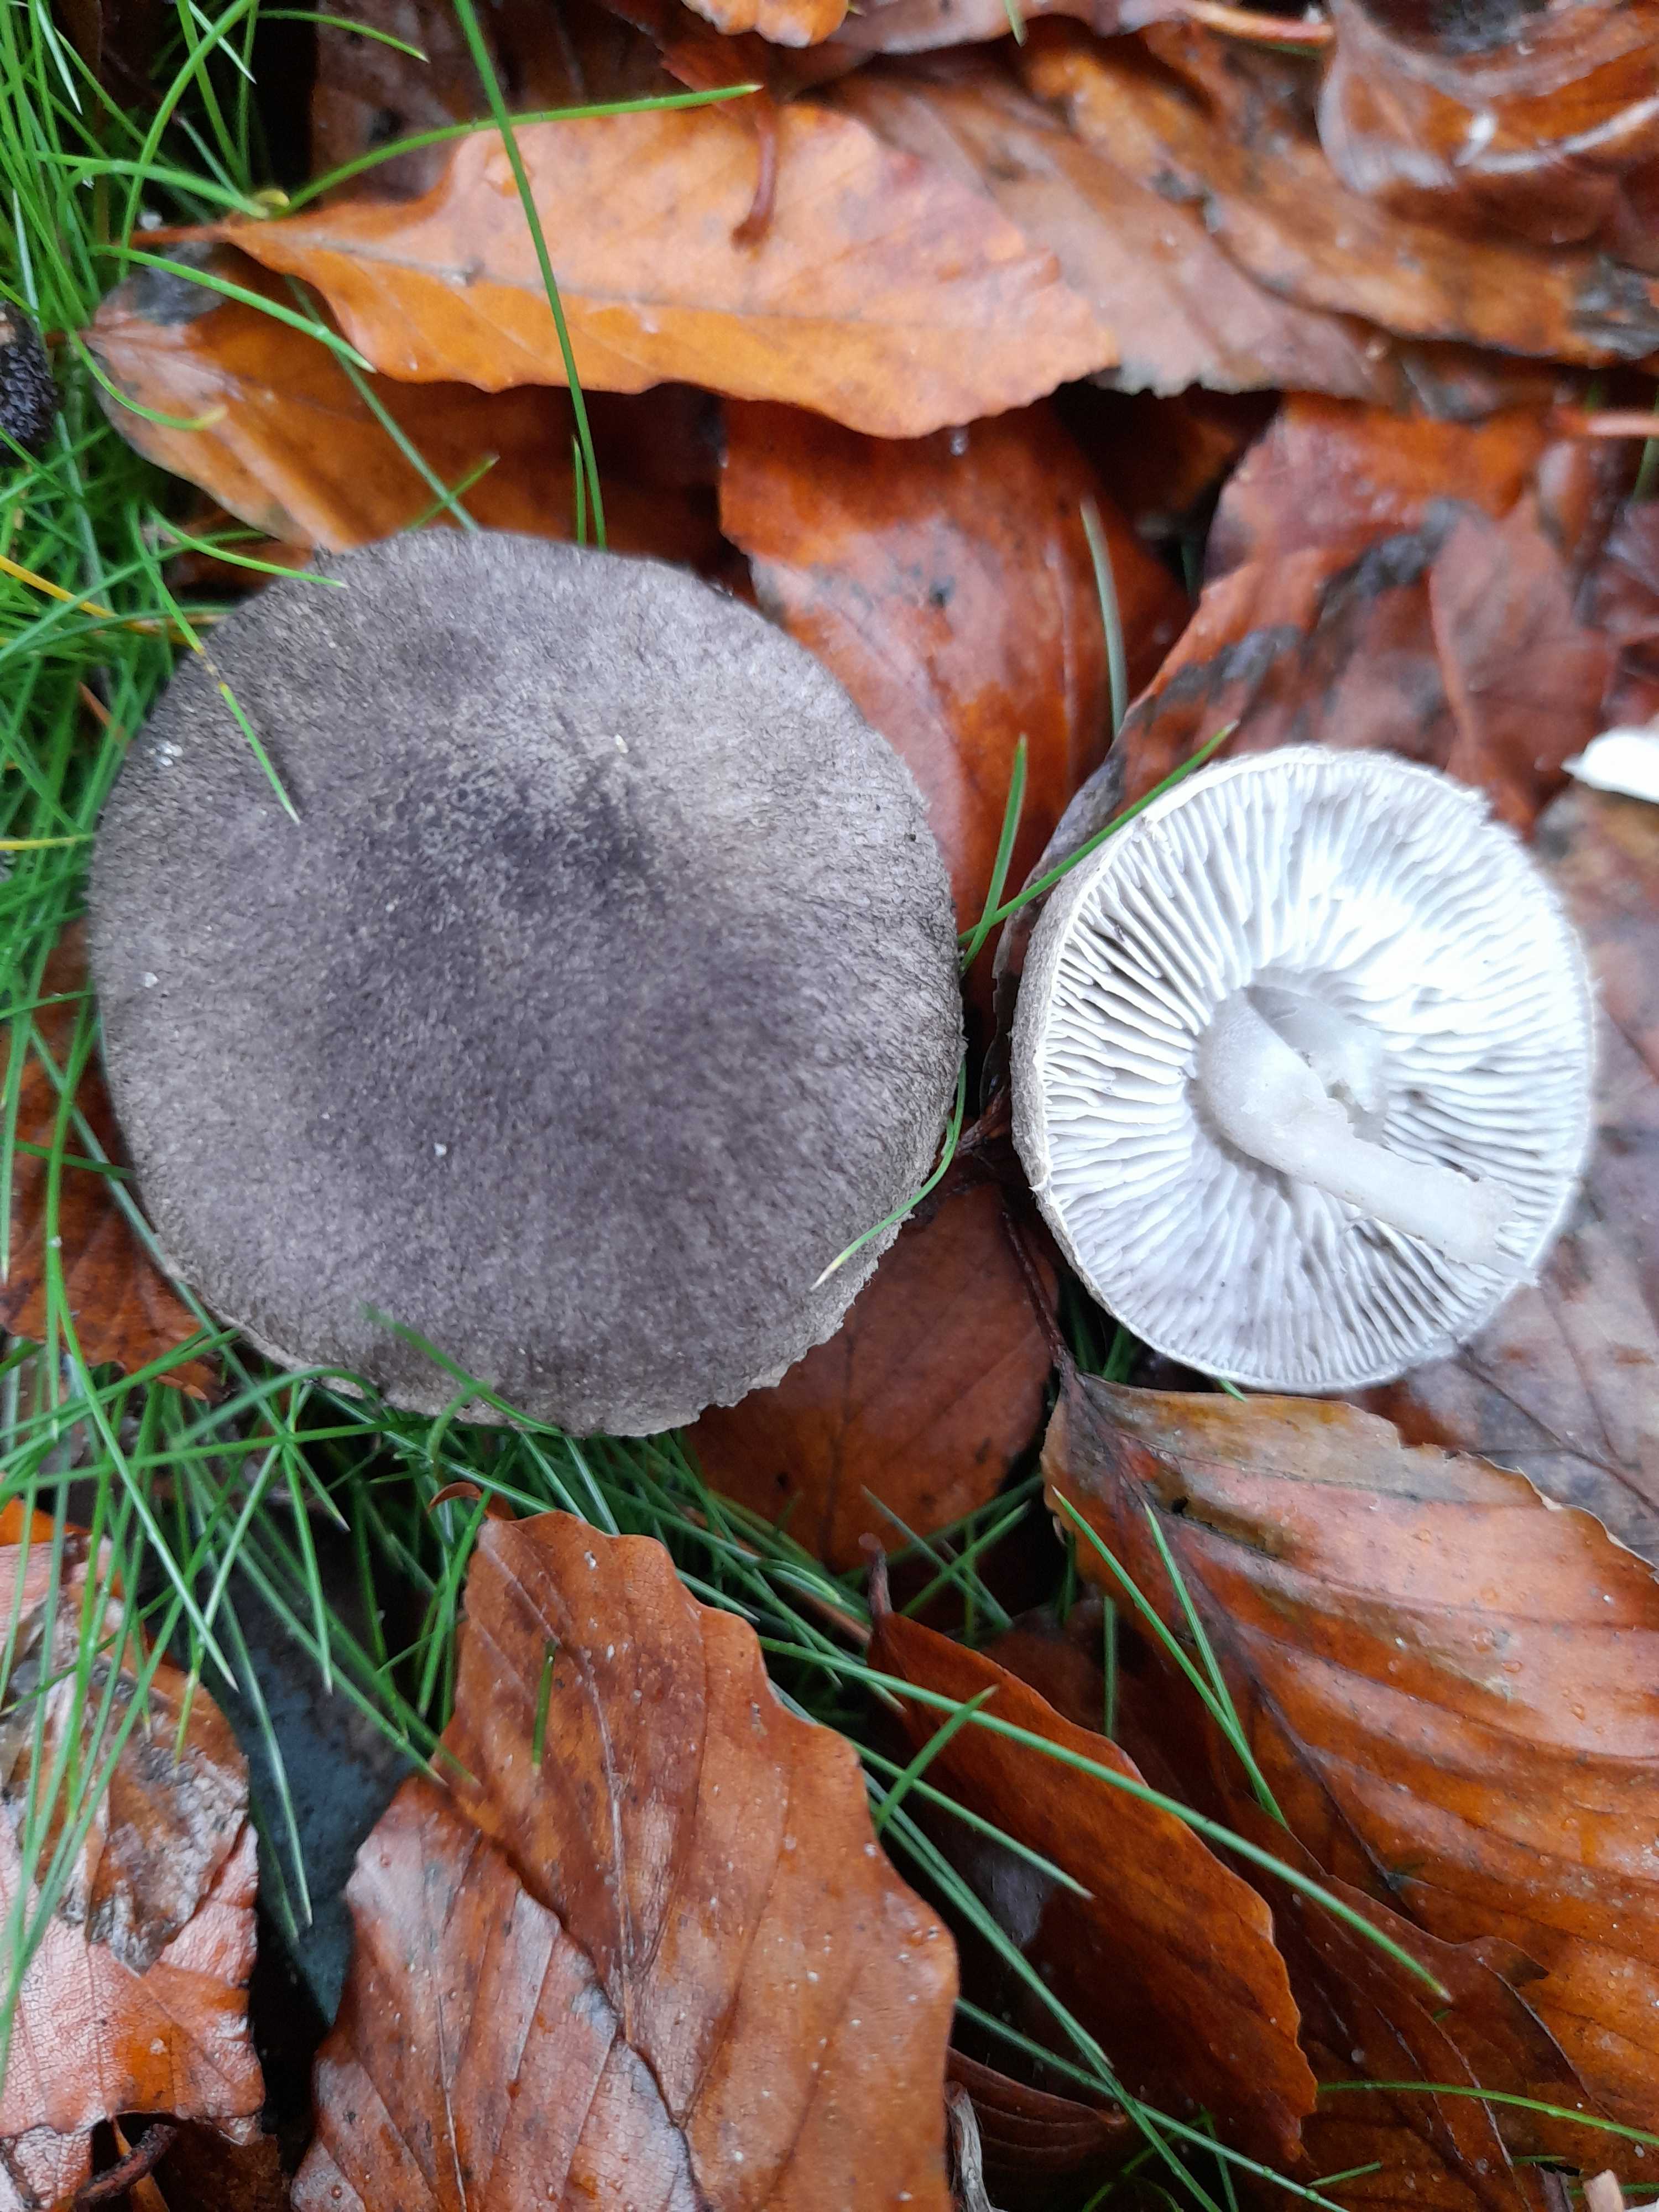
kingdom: Fungi
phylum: Basidiomycota
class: Agaricomycetes
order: Agaricales
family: Tricholomataceae
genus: Tricholoma
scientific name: Tricholoma terreum
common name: jordfarvet ridderhat
